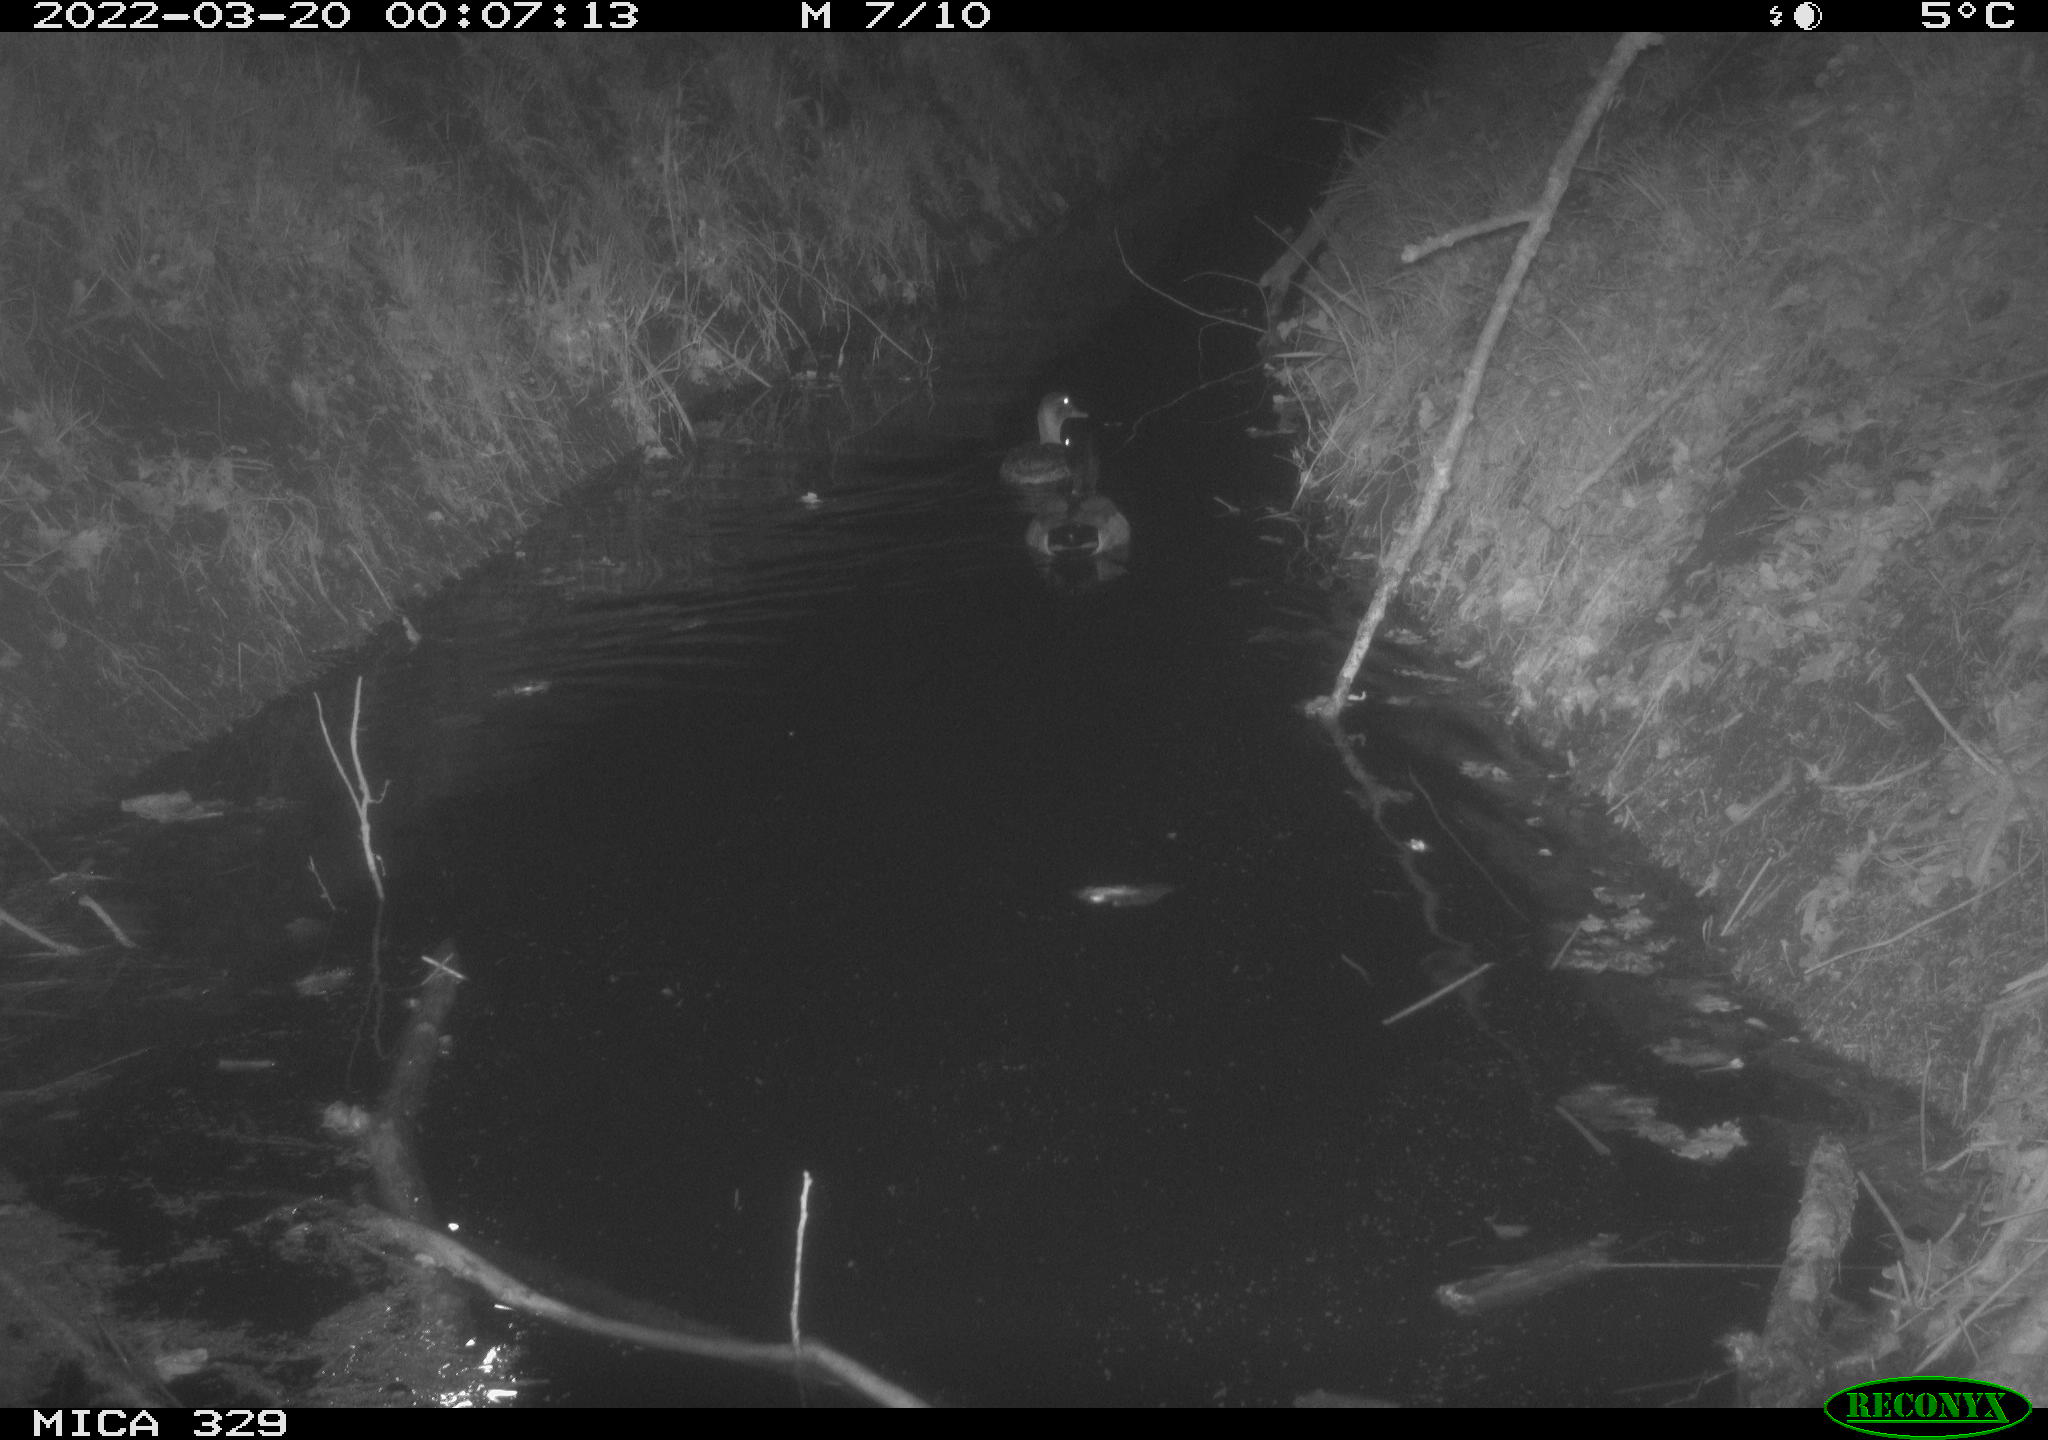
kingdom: Animalia
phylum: Chordata
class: Aves
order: Anseriformes
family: Anatidae
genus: Anas
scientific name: Anas platyrhynchos
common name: Mallard
